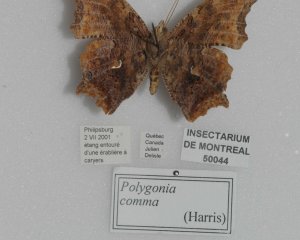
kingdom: Animalia
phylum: Arthropoda
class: Insecta
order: Lepidoptera
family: Nymphalidae
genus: Polygonia
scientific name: Polygonia comma
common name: Eastern Comma
